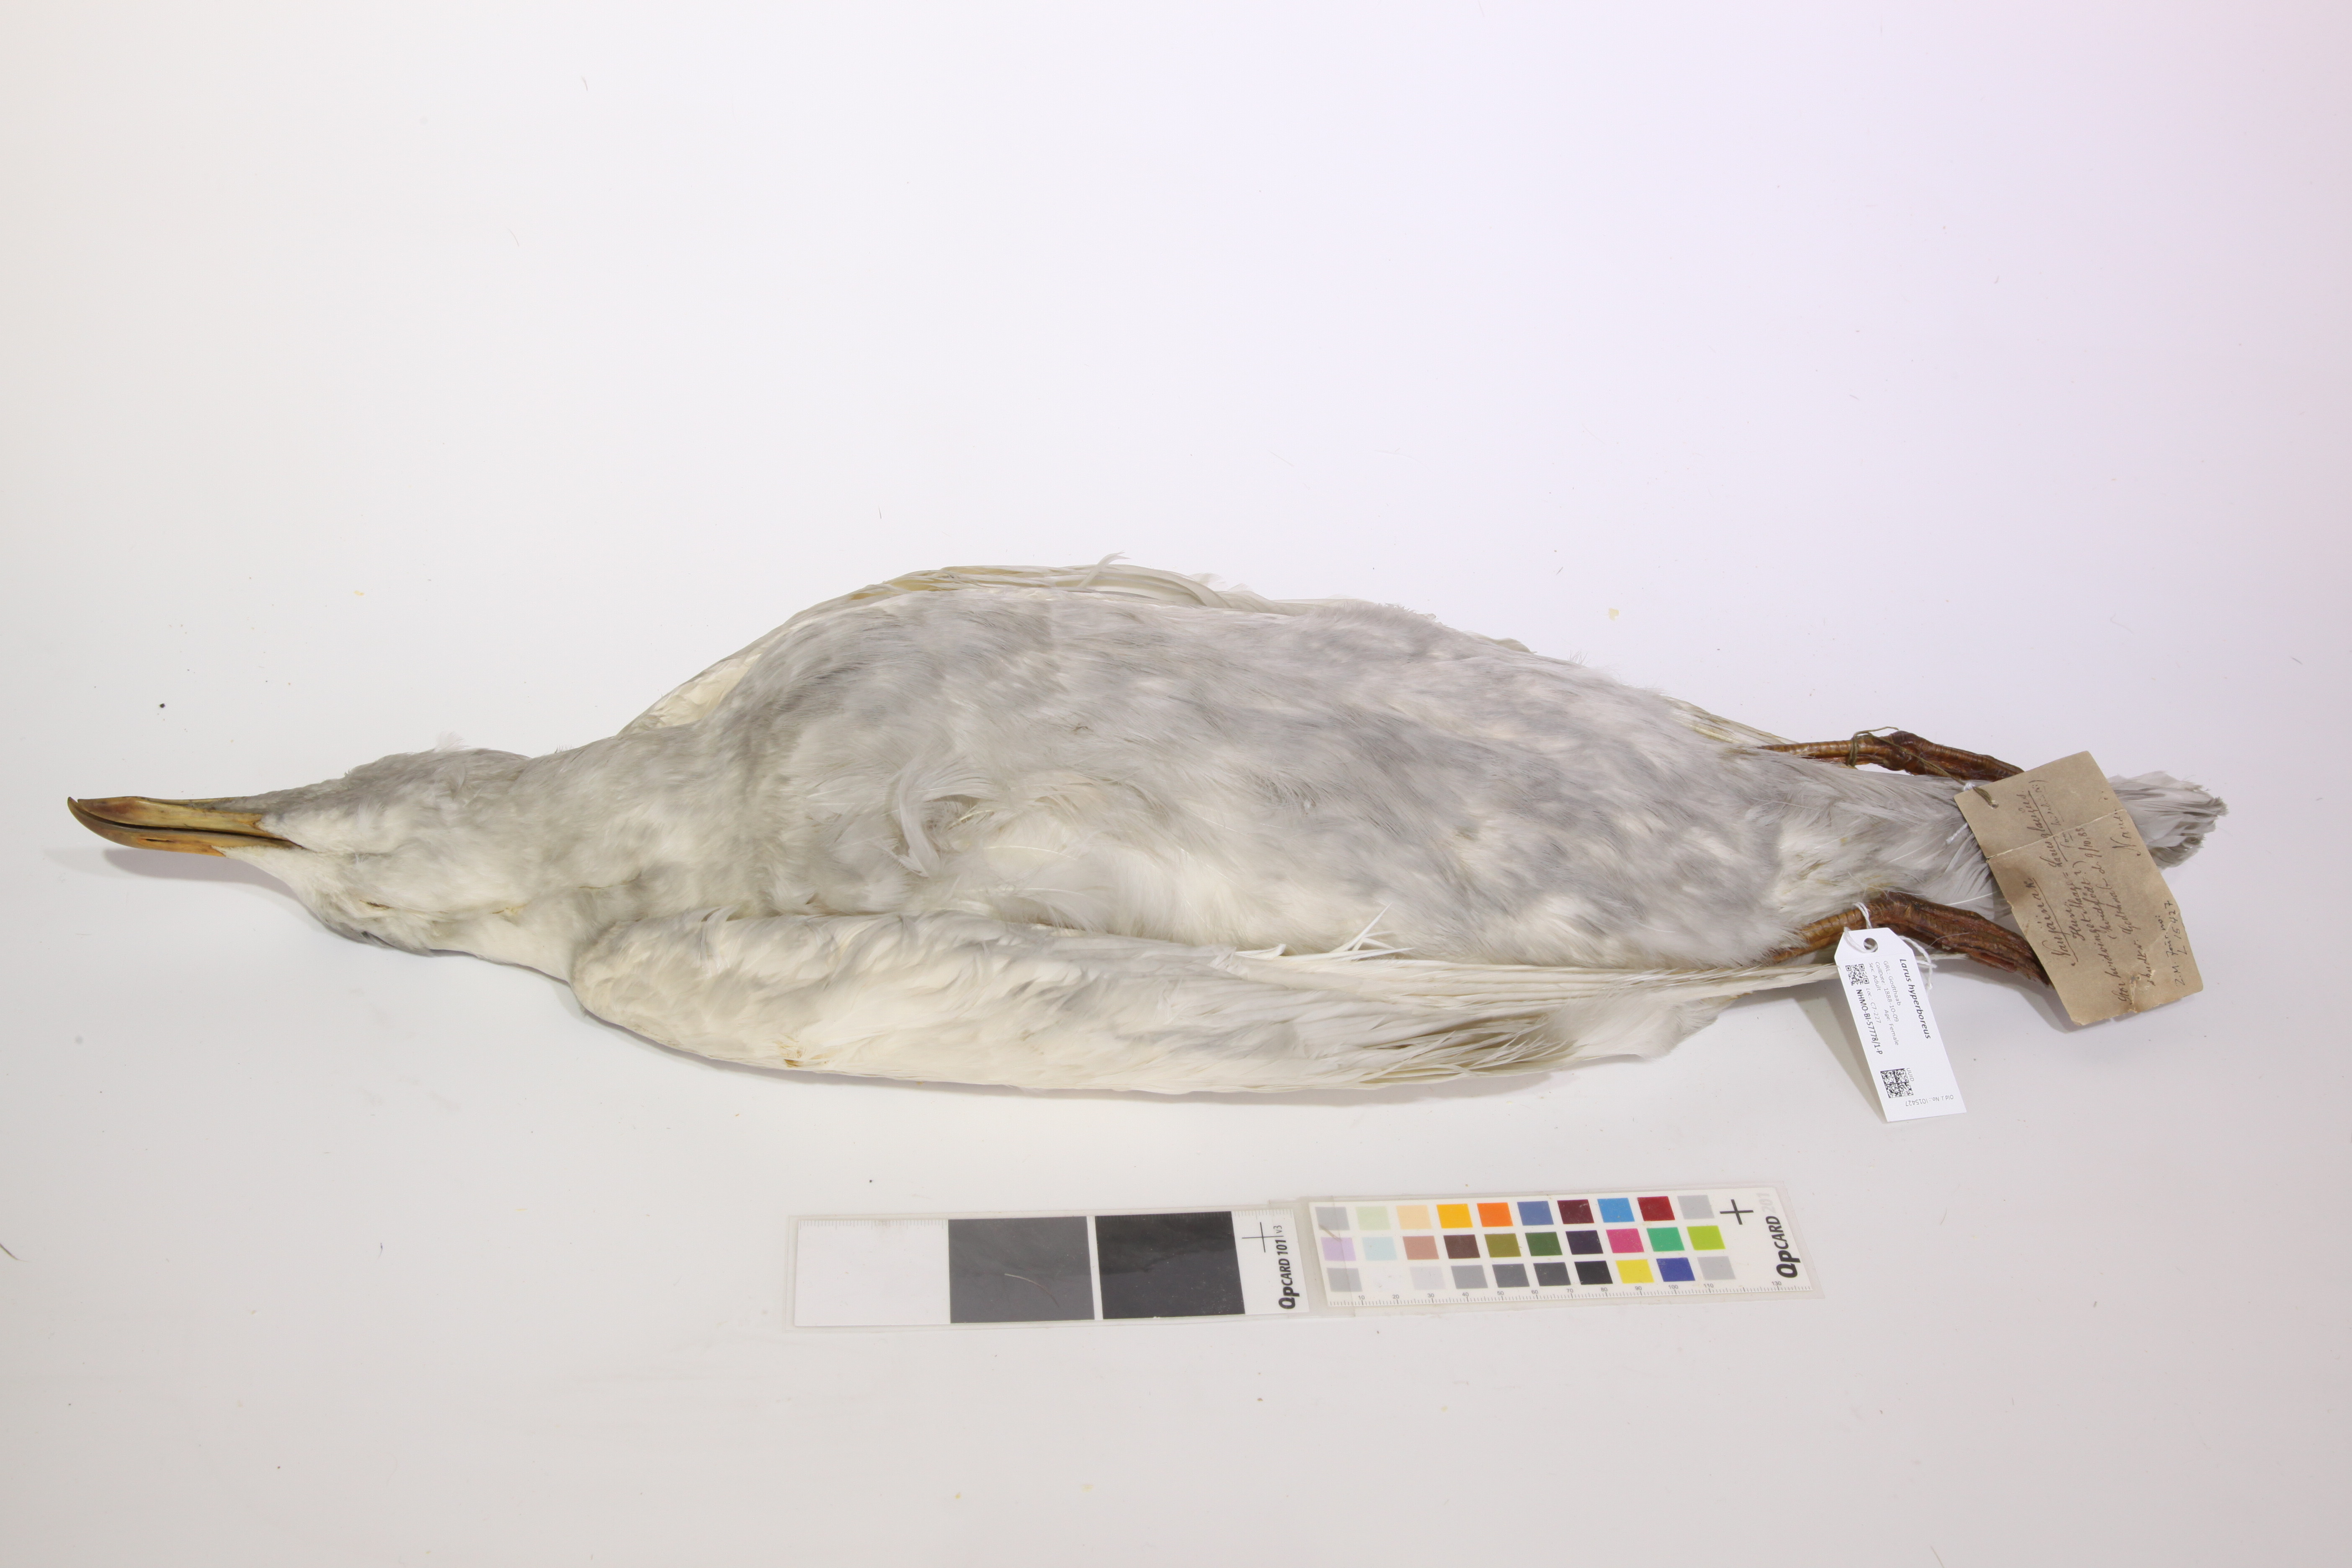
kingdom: Animalia
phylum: Chordata
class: Aves
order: Charadriiformes
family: Laridae
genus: Larus
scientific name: Larus hyperboreus
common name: Glaucous gull
